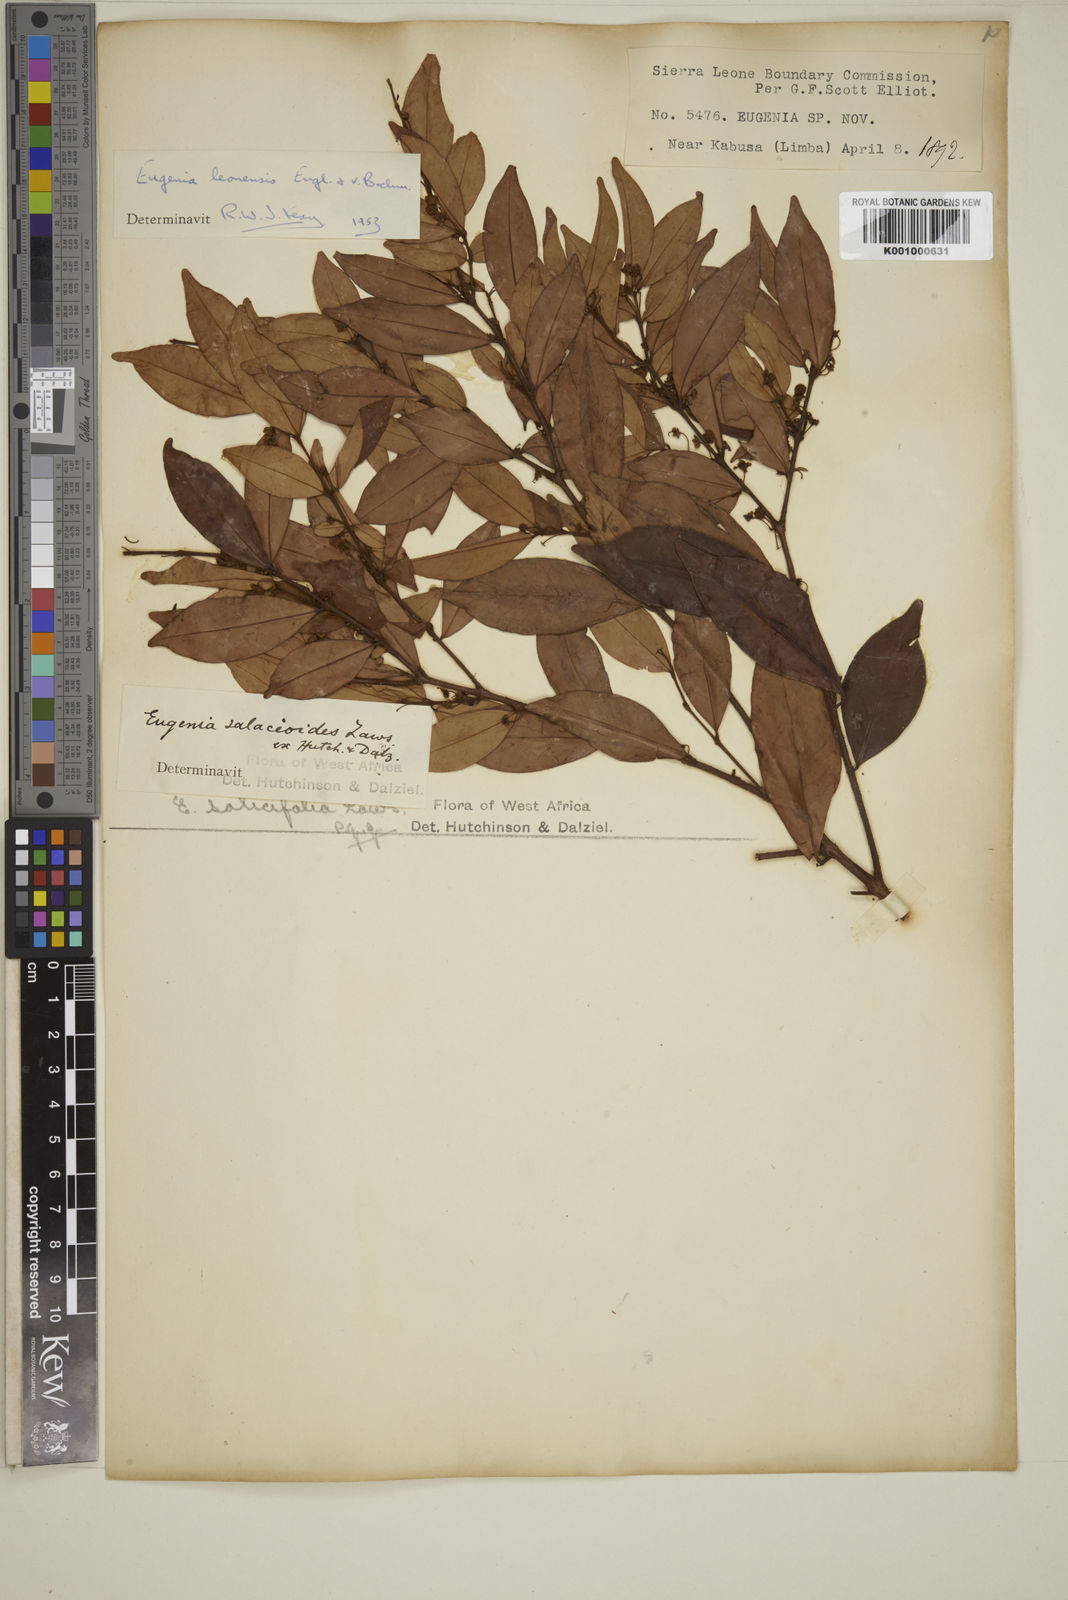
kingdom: Plantae
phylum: Tracheophyta
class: Magnoliopsida
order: Myrtales
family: Myrtaceae
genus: Eugenia
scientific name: Eugenia leonensis
